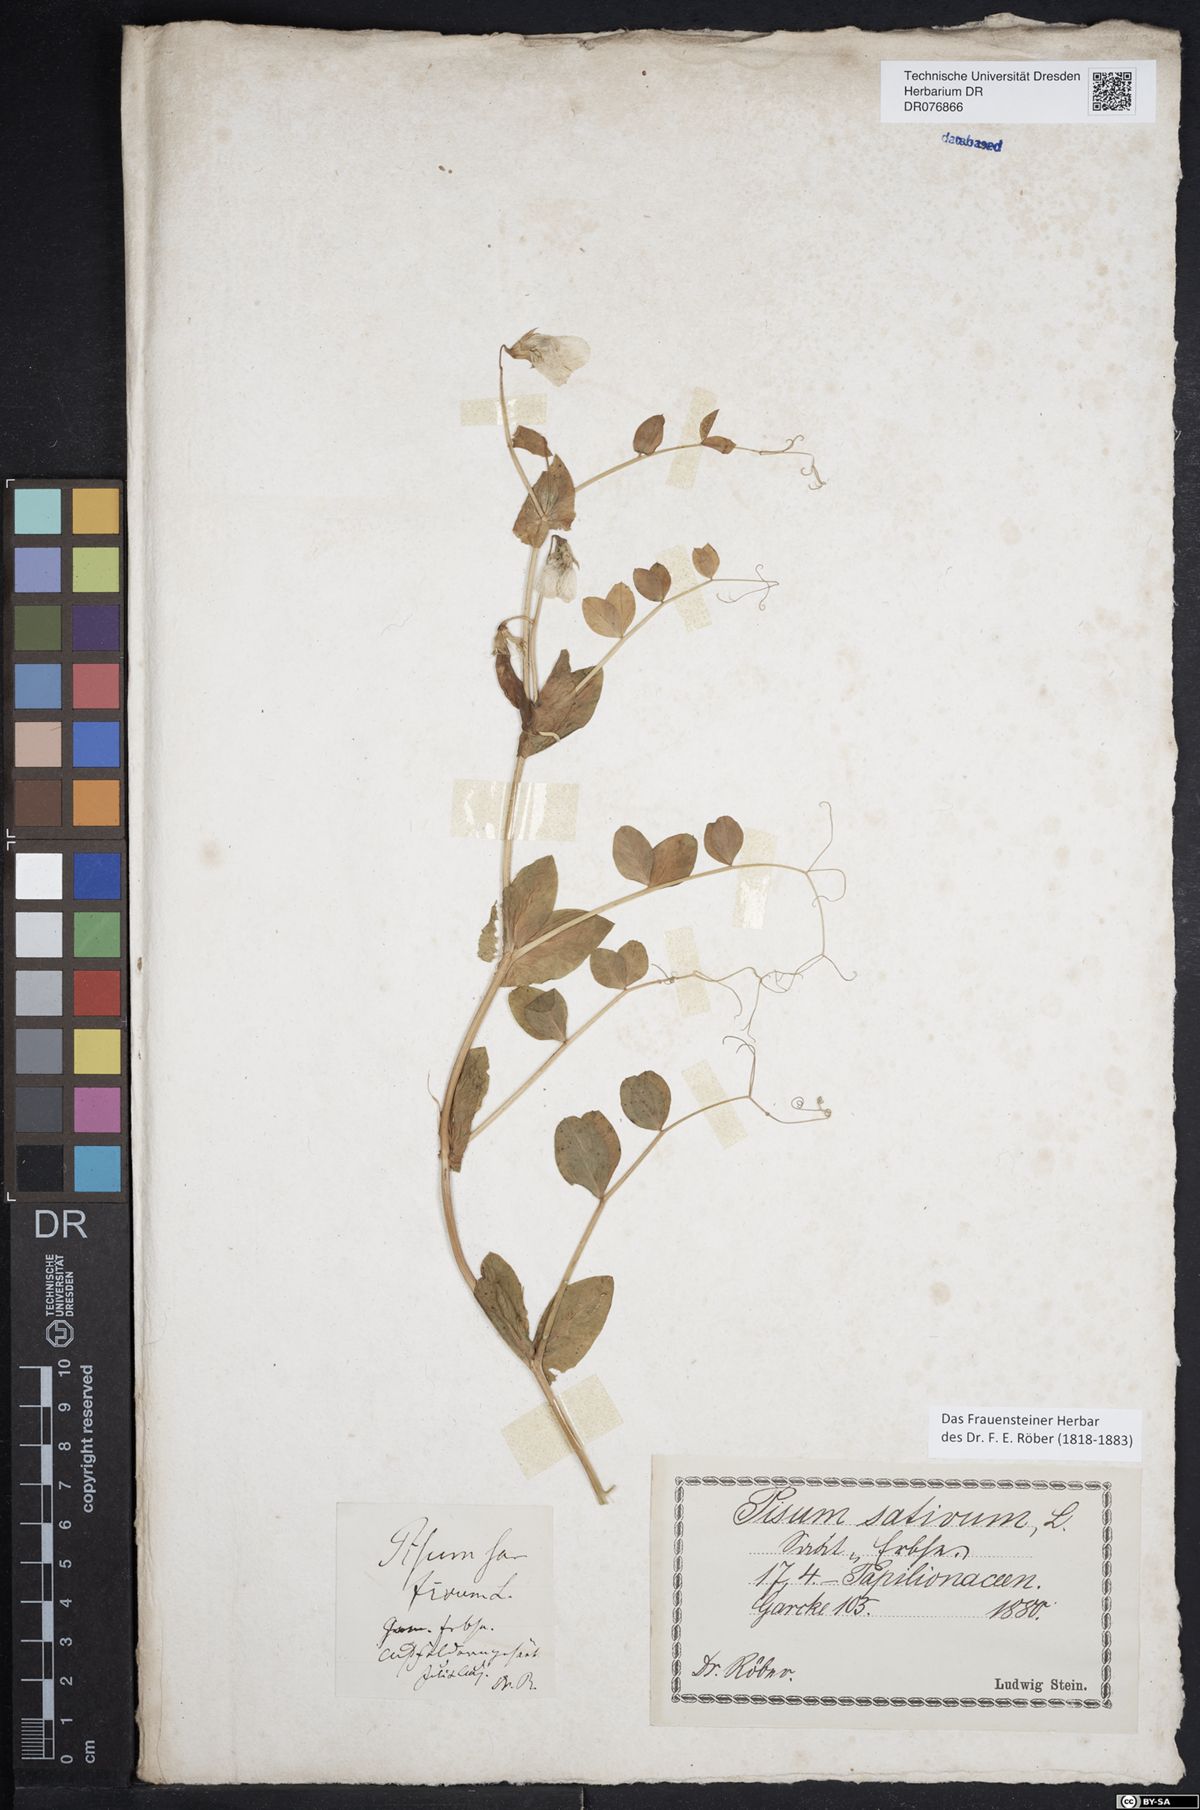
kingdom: Plantae
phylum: Tracheophyta
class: Magnoliopsida
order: Fabales
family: Fabaceae
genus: Lathyrus
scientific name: Lathyrus oleraceus
